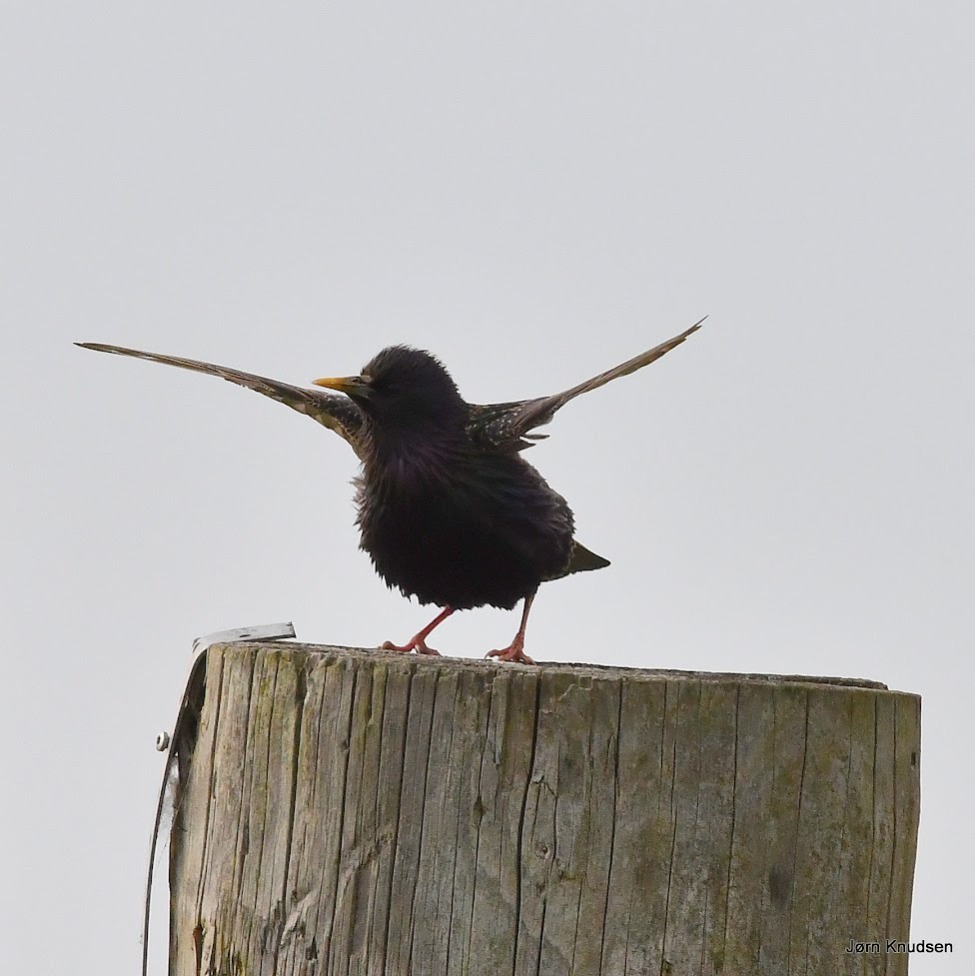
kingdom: Animalia
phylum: Chordata
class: Aves
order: Passeriformes
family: Sturnidae
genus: Sturnus
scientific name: Sturnus vulgaris
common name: Stær
